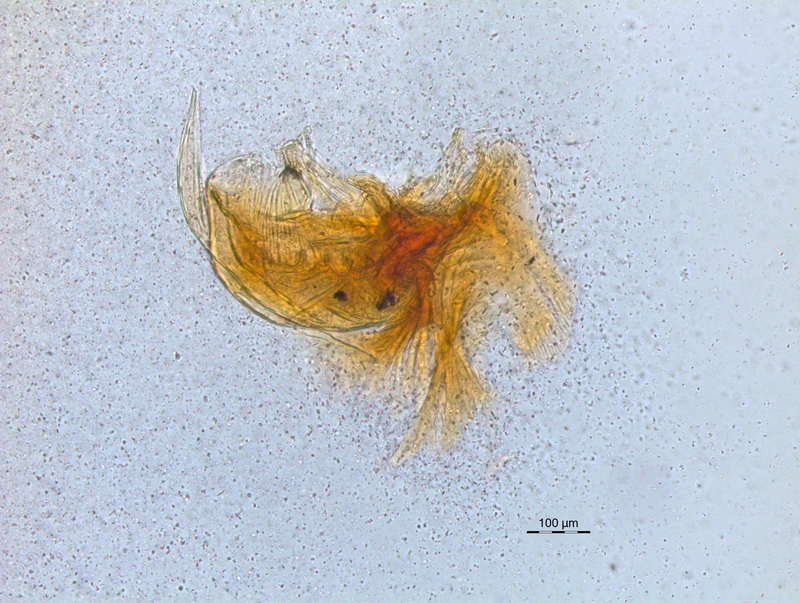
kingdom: Animalia
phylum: Arthropoda
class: Diplopoda
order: Chordeumatida
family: Craspedosomatidae
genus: Craspedosoma
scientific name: Craspedosoma rawlinsii
